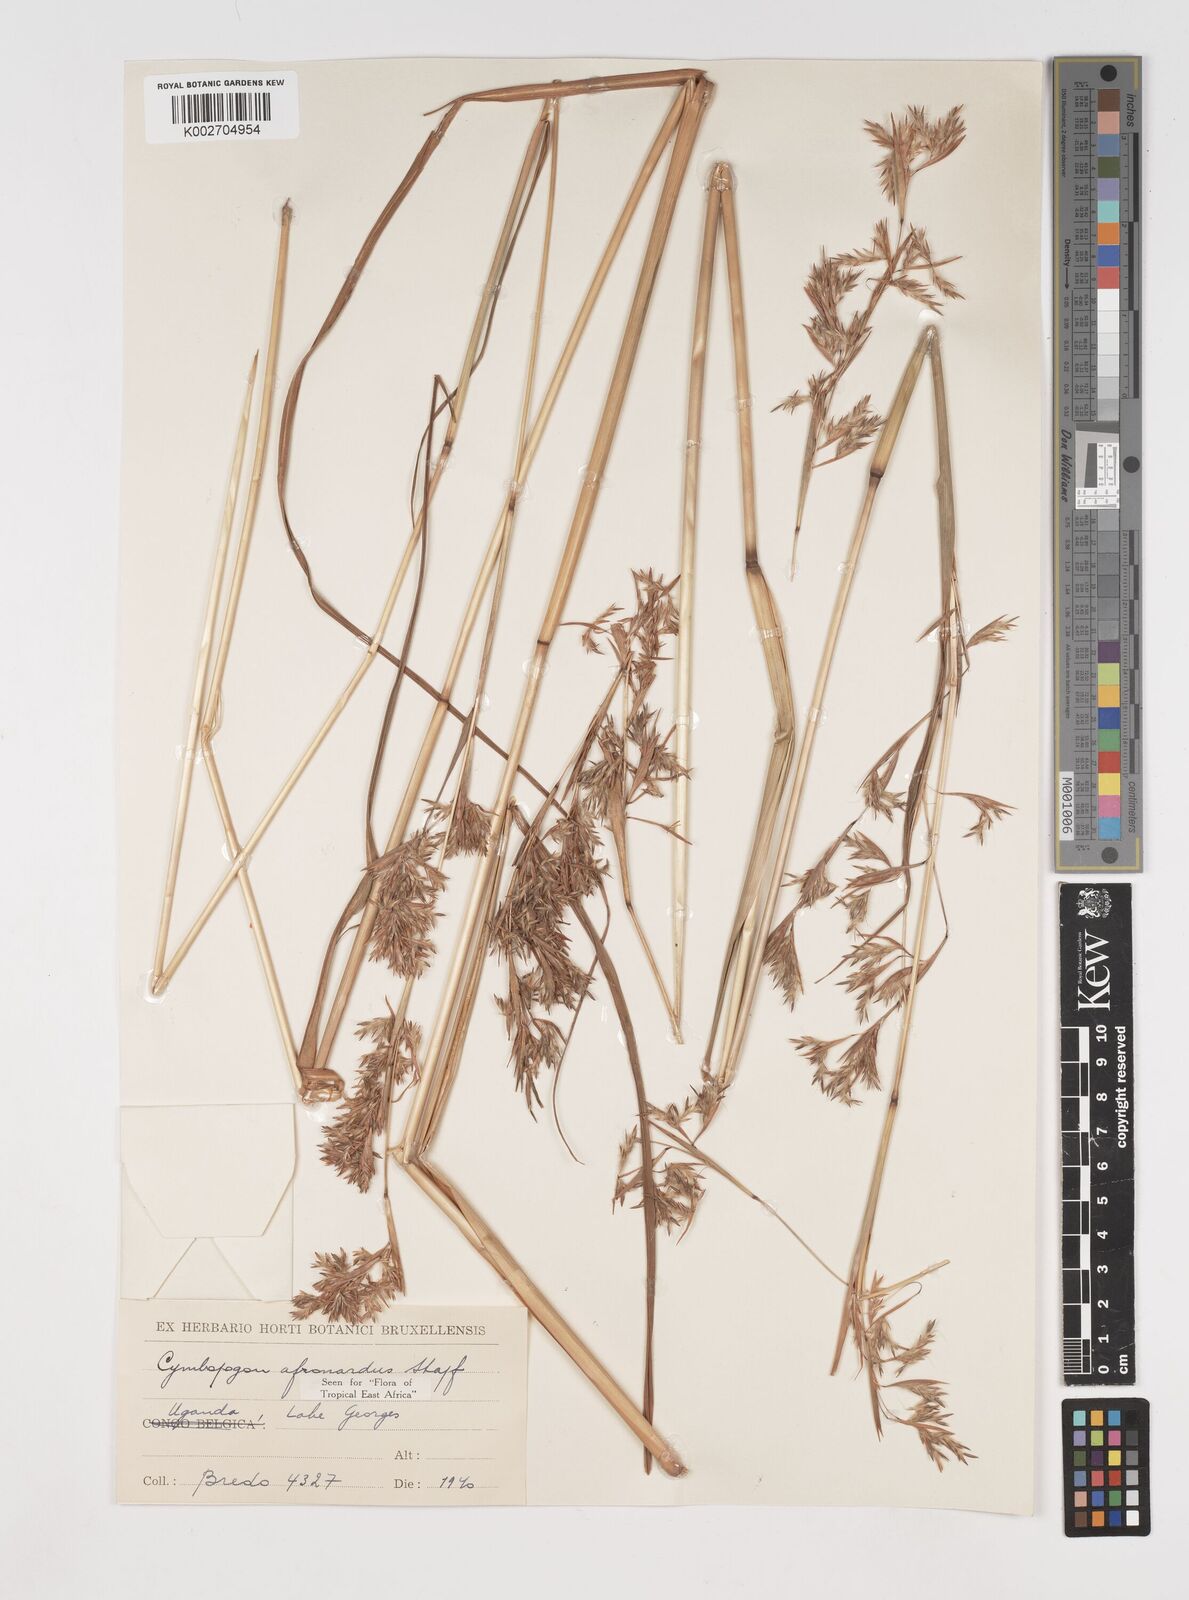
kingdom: Plantae
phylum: Tracheophyta
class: Liliopsida
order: Poales
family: Poaceae
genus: Cymbopogon
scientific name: Cymbopogon nardus
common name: Giant turpentine grass
